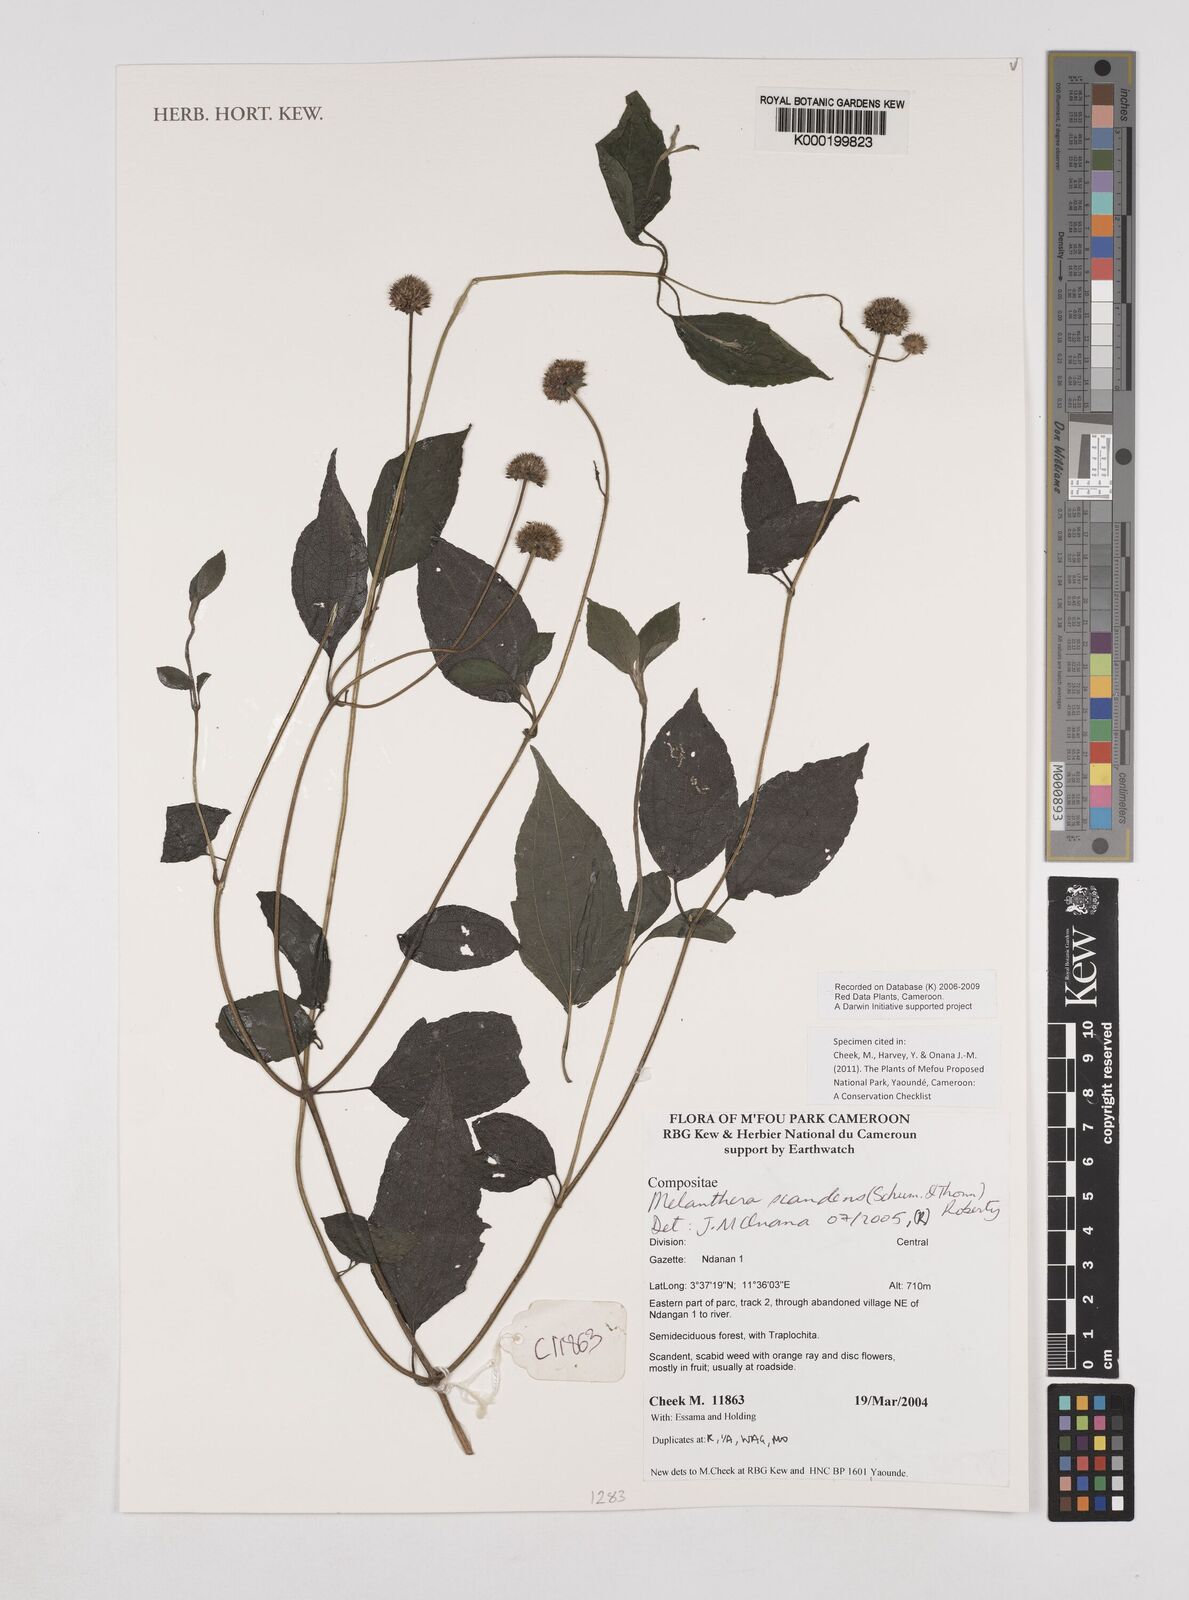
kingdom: Plantae
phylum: Tracheophyta
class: Magnoliopsida
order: Asterales
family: Asteraceae
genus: Melanthera
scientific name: Melanthera
